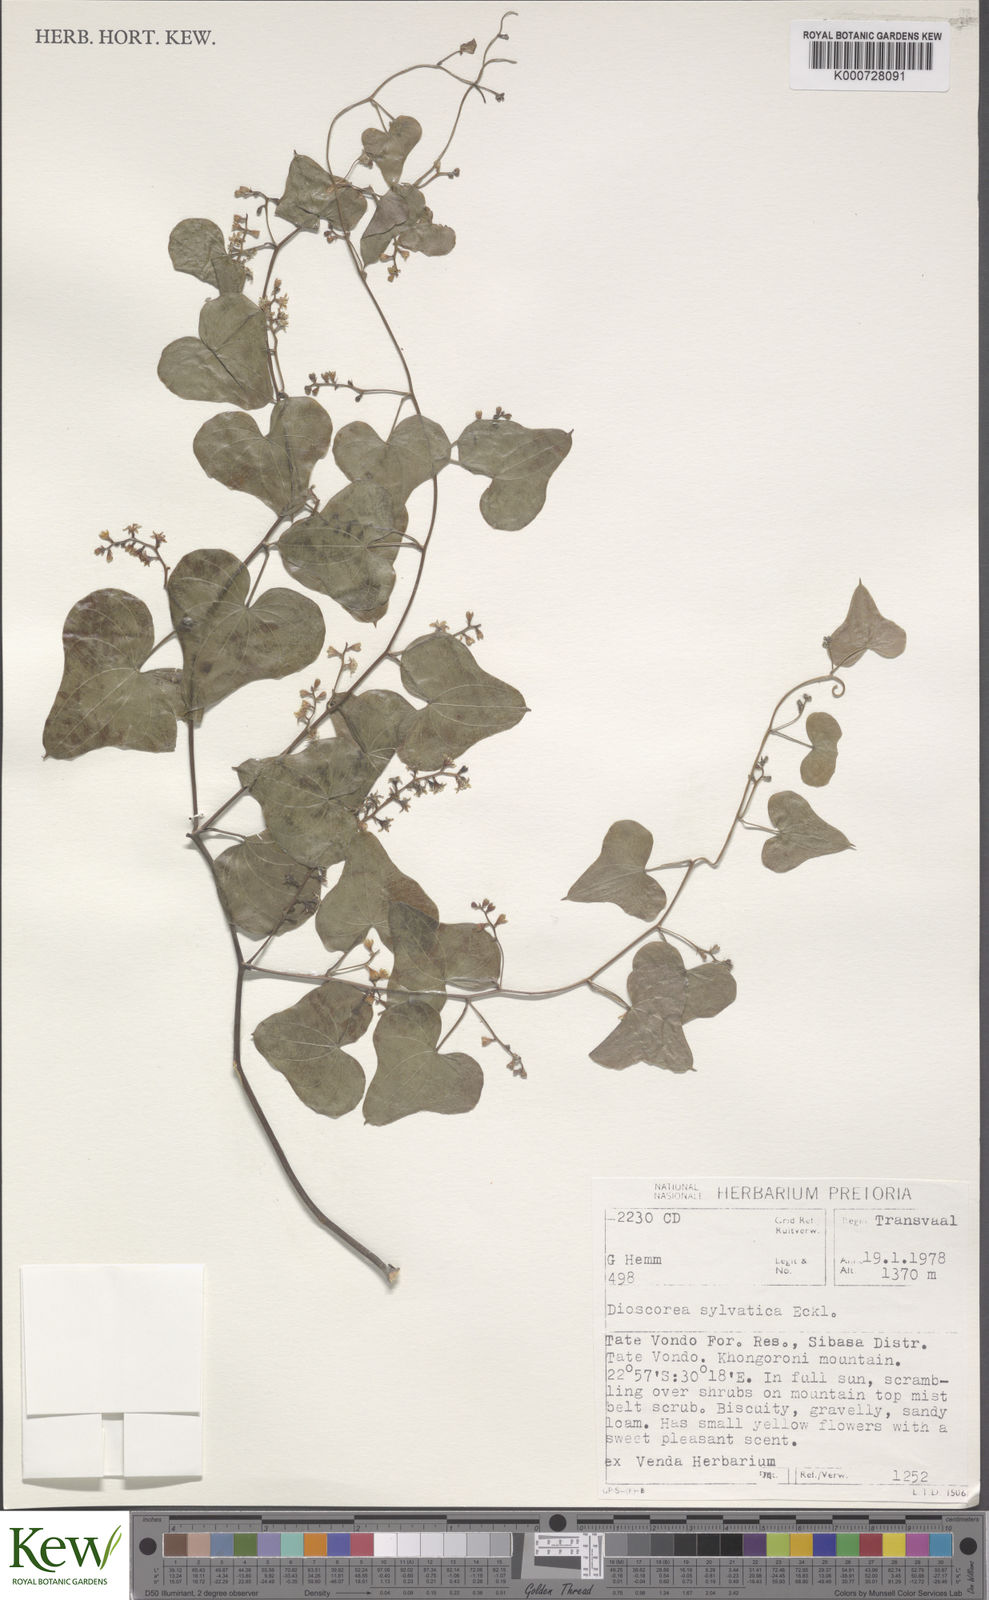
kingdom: Plantae
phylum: Tracheophyta
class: Liliopsida
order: Dioscoreales
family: Dioscoreaceae
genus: Dioscorea
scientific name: Dioscorea
